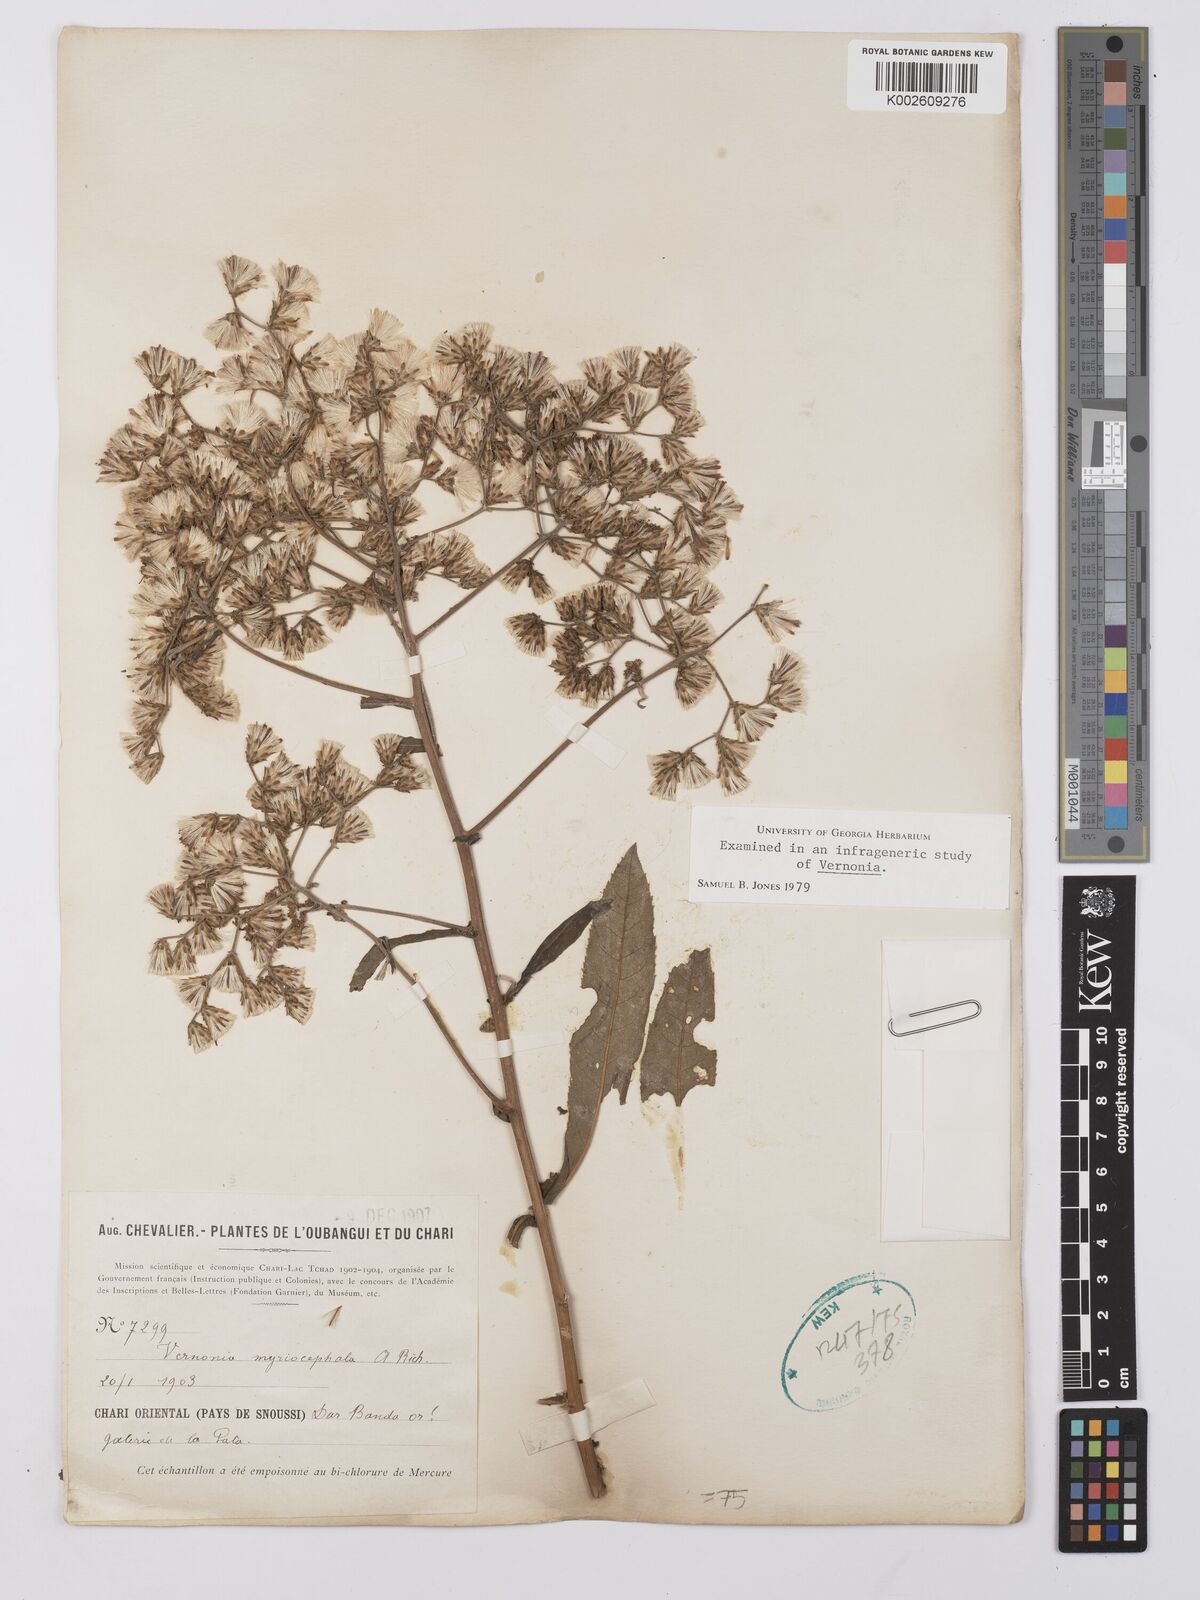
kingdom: Plantae
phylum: Tracheophyta
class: Magnoliopsida
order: Asterales
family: Asteraceae
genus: Gymnanthemum
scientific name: Gymnanthemum theophrastifolium
